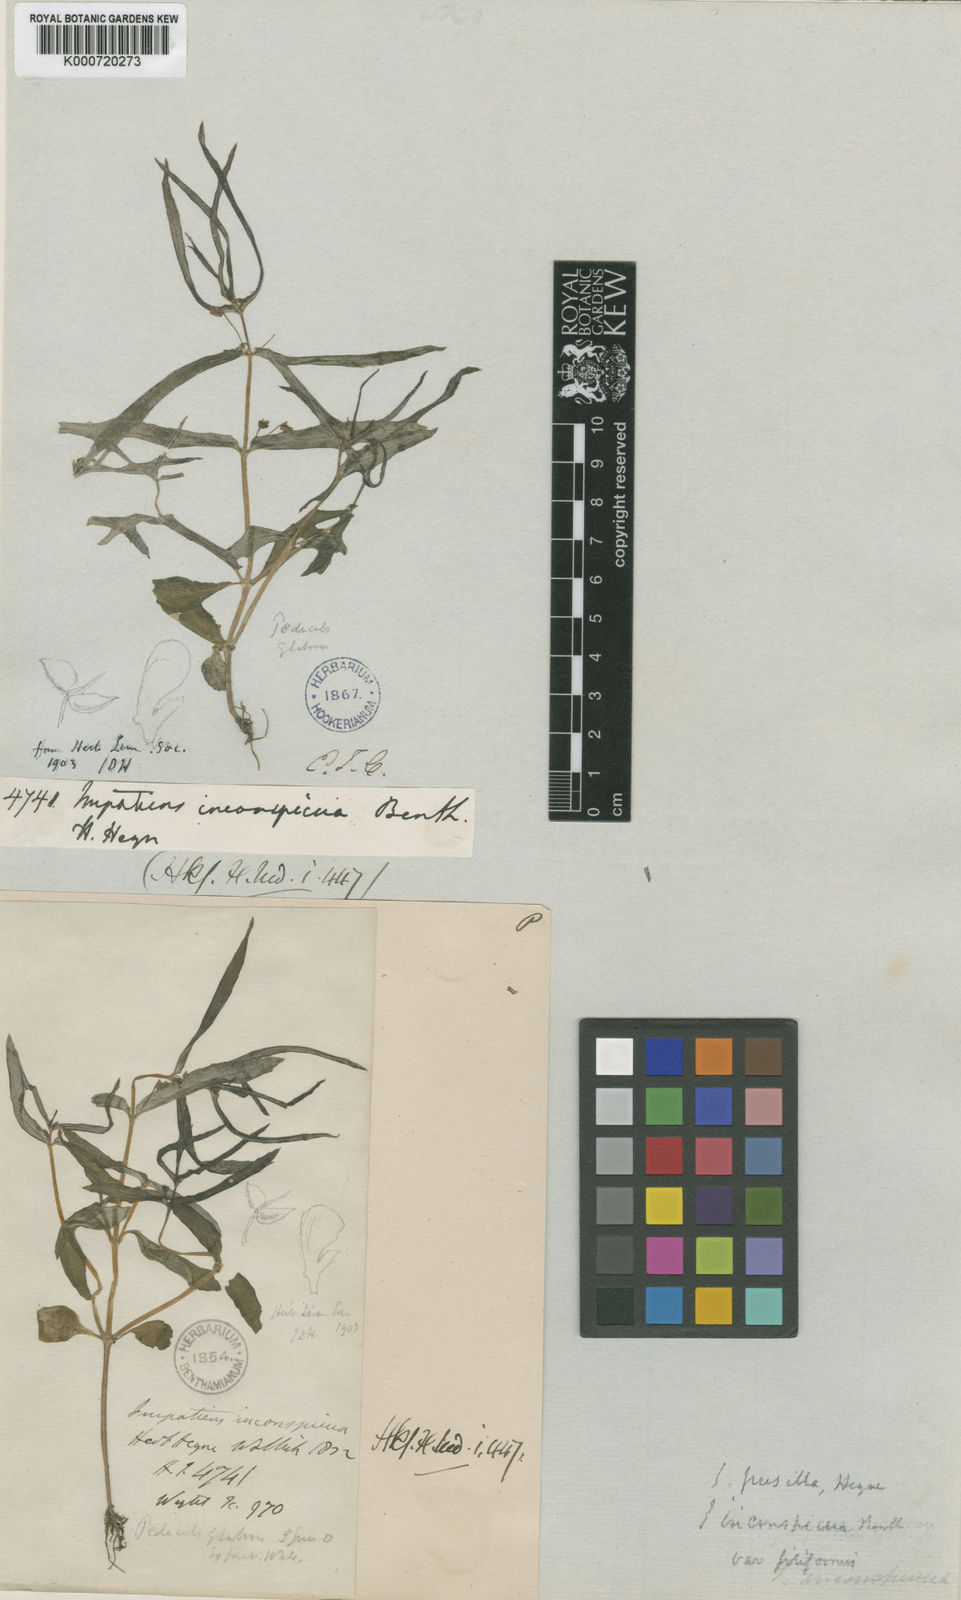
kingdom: Plantae
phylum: Tracheophyta
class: Magnoliopsida
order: Ericales
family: Balsaminaceae
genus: Impatiens
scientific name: Impatiens
